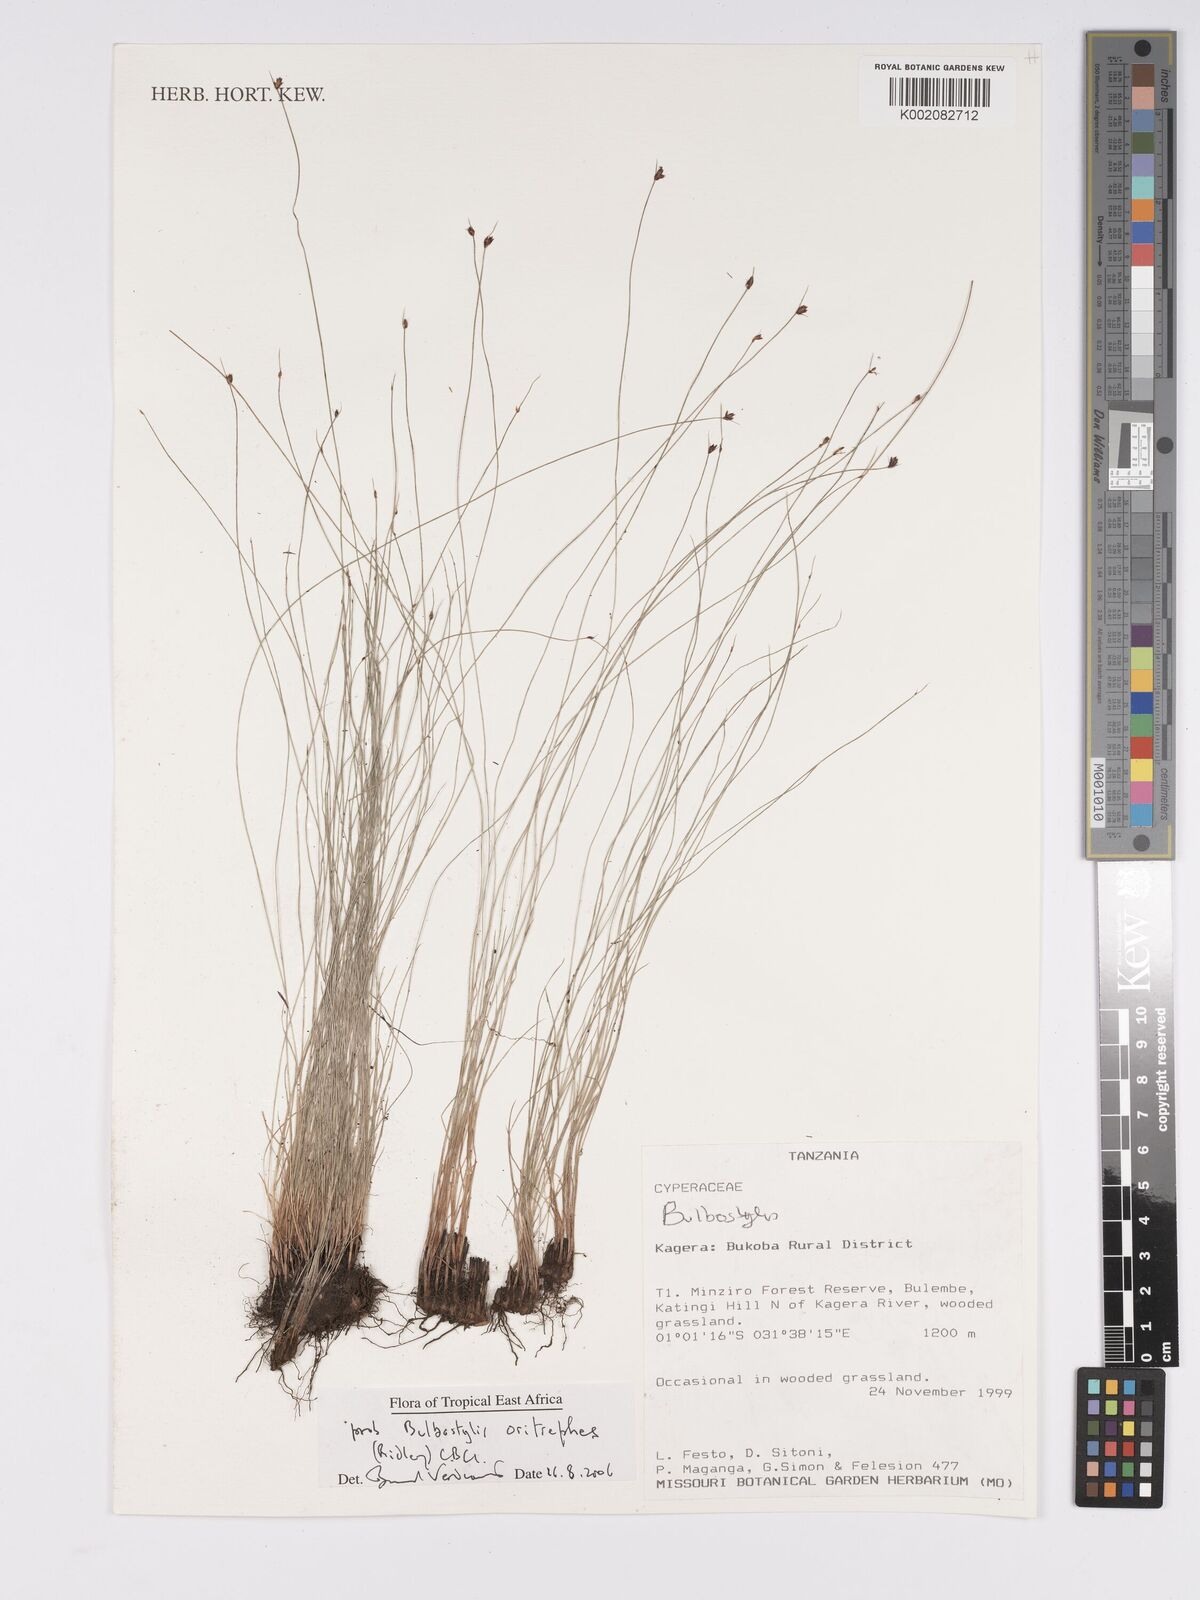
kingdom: Plantae
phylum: Tracheophyta
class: Liliopsida
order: Poales
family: Cyperaceae
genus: Bulbostylis
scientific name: Bulbostylis oritrephes
